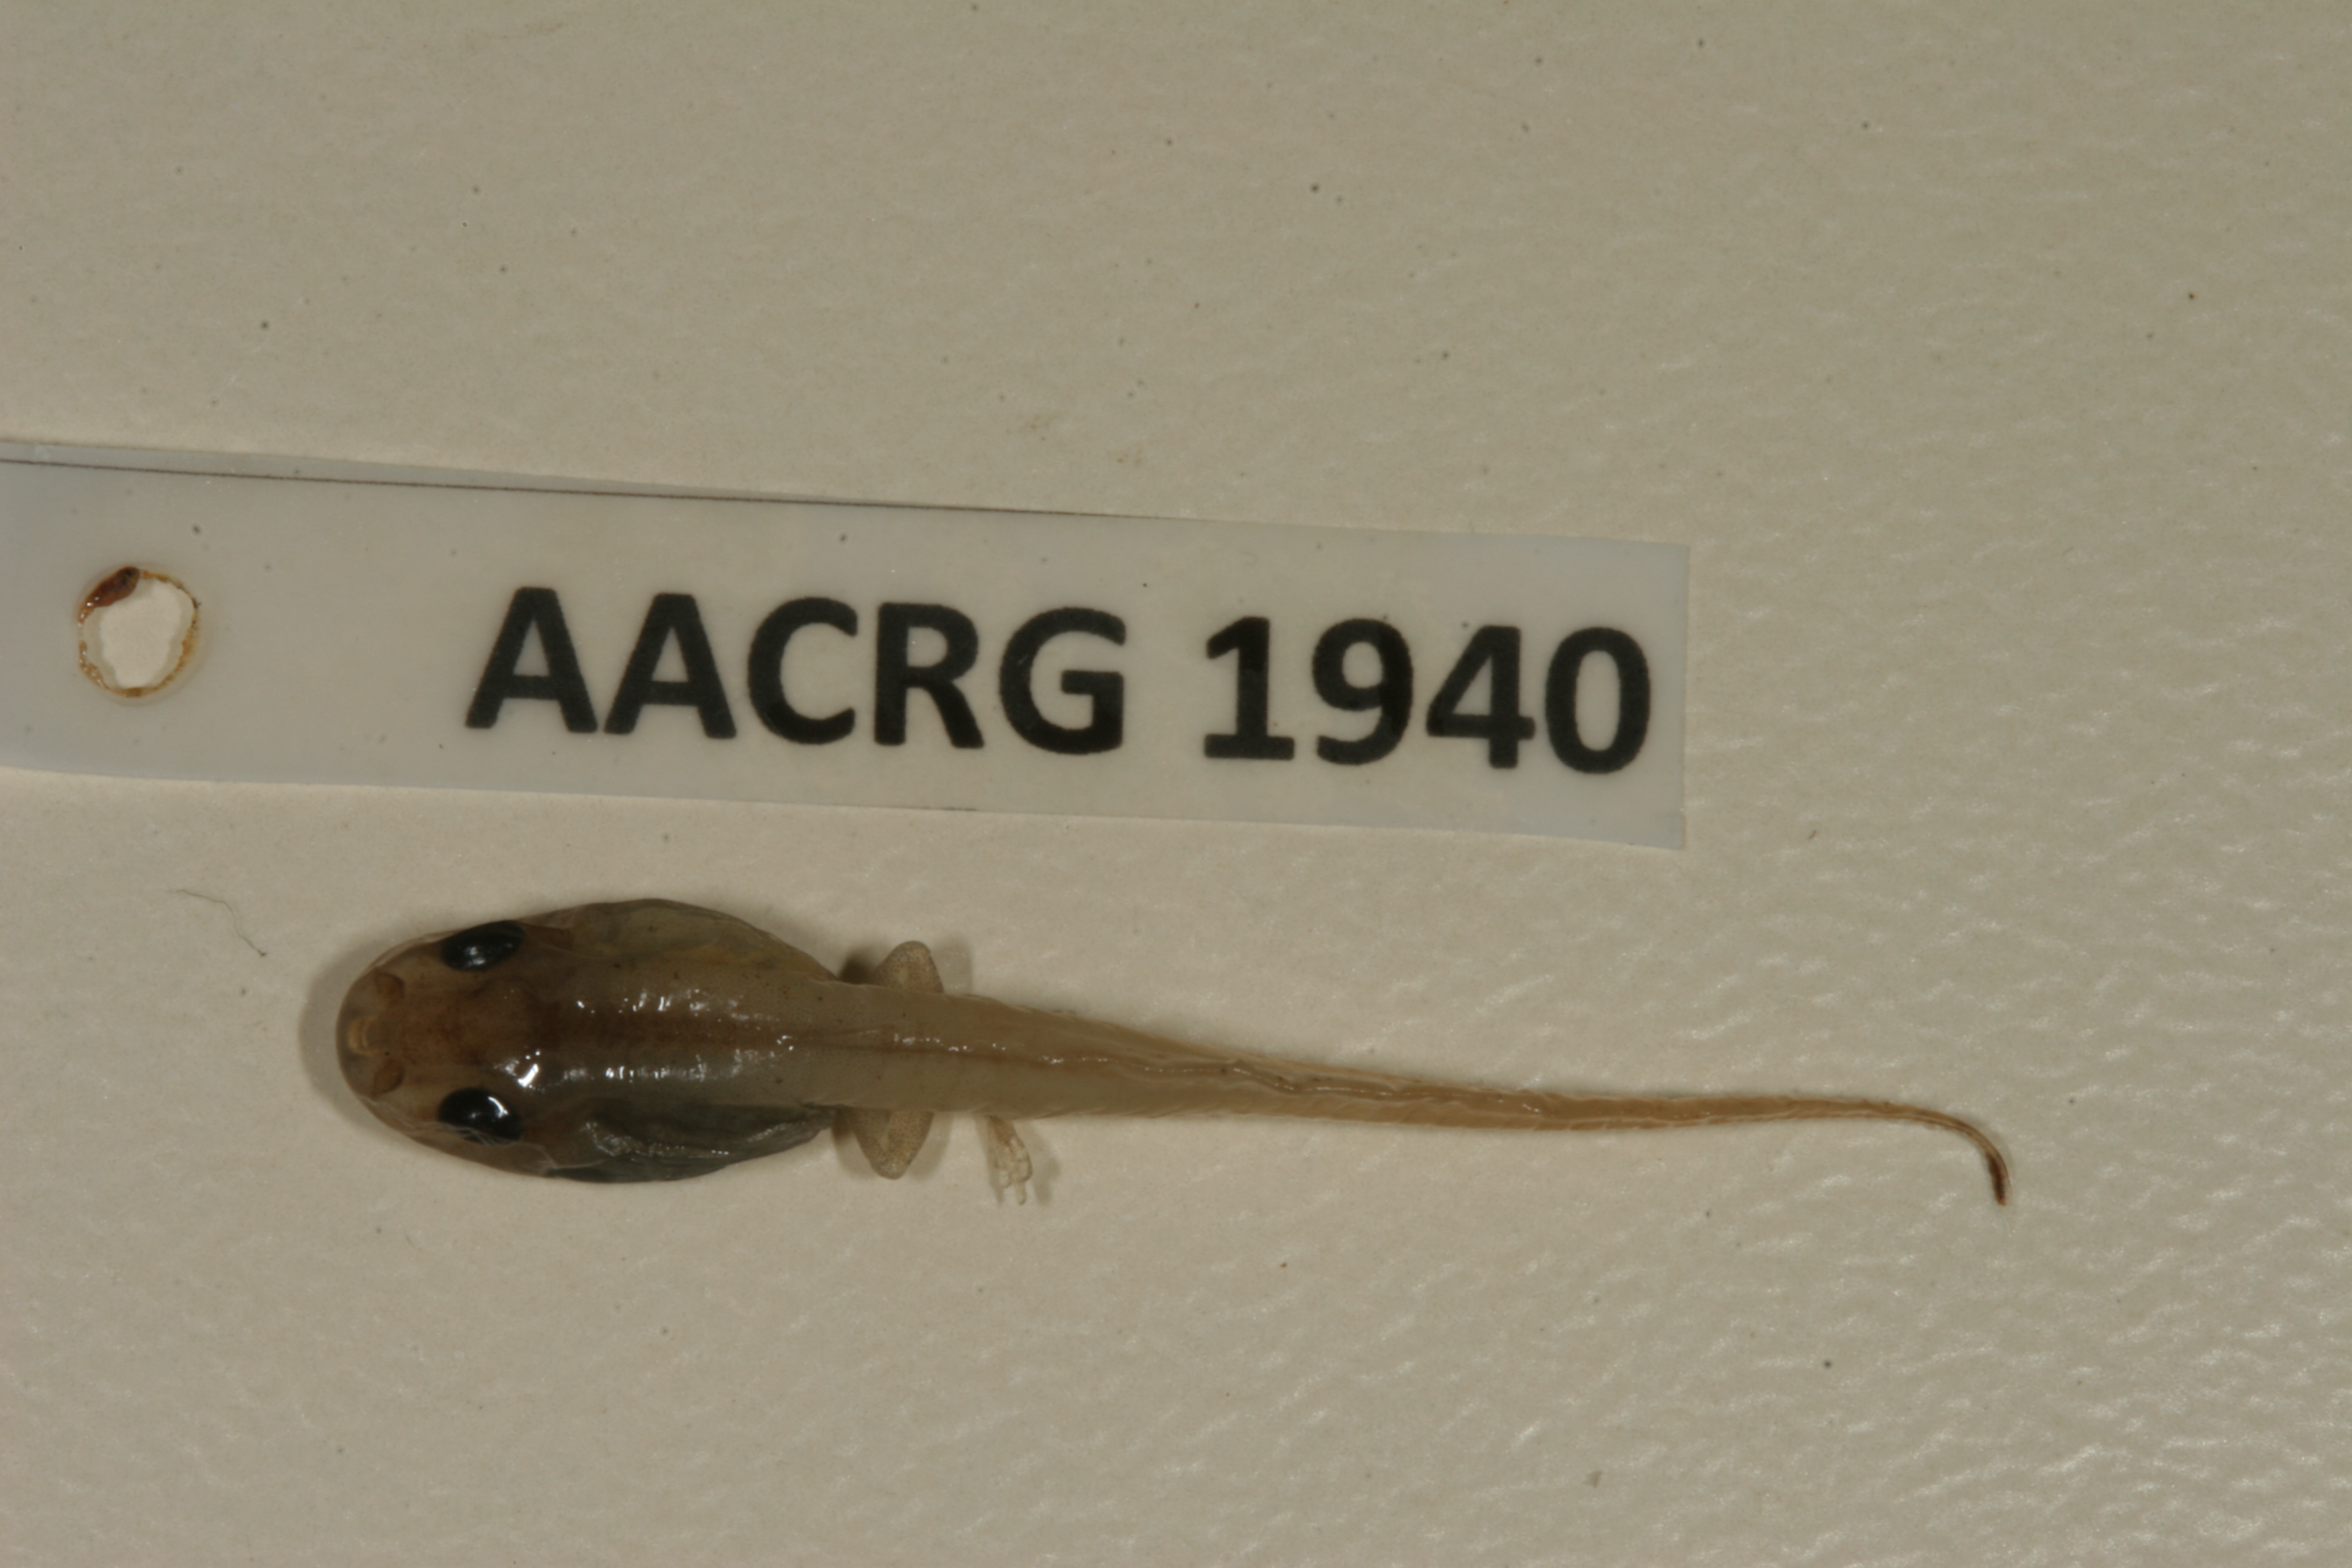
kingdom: Animalia
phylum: Chordata
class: Amphibia
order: Anura
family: Hyperoliidae
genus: Hyperolius
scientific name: Hyperolius nasutus
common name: Sharp-and-blunt-snouted sedge frog
